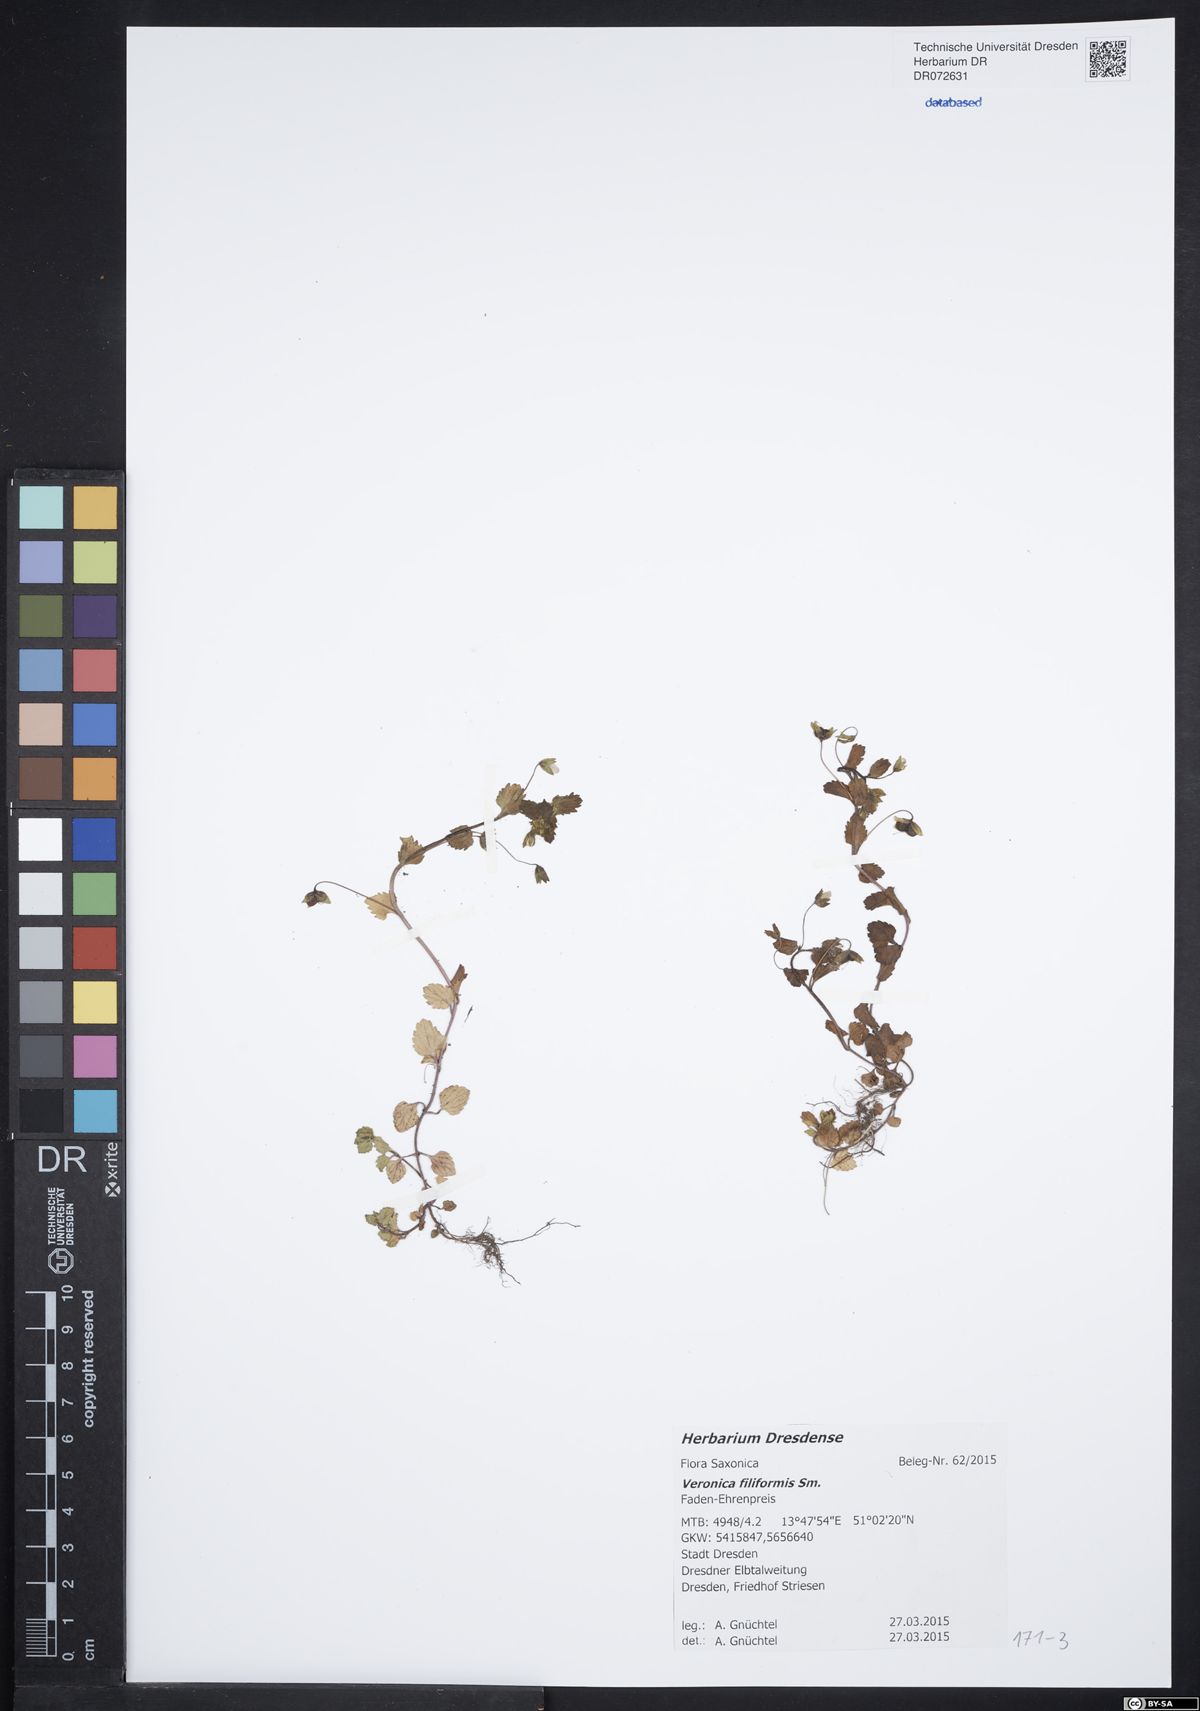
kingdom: Plantae
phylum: Tracheophyta
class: Magnoliopsida
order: Lamiales
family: Plantaginaceae
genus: Veronica
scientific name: Veronica filiformis
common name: Slender speedwell
